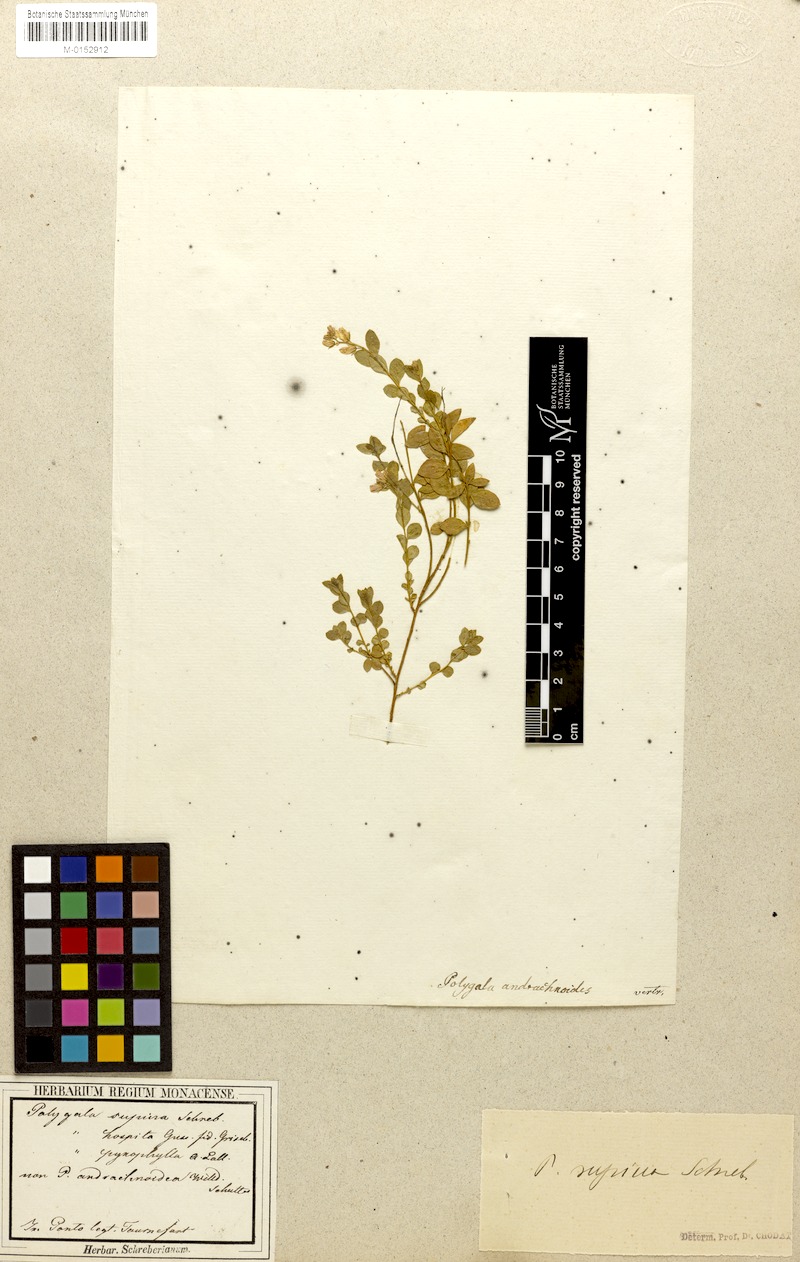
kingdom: Plantae
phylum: Tracheophyta
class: Magnoliopsida
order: Fabales
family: Polygalaceae
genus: Polygala
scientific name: Polygala supina
